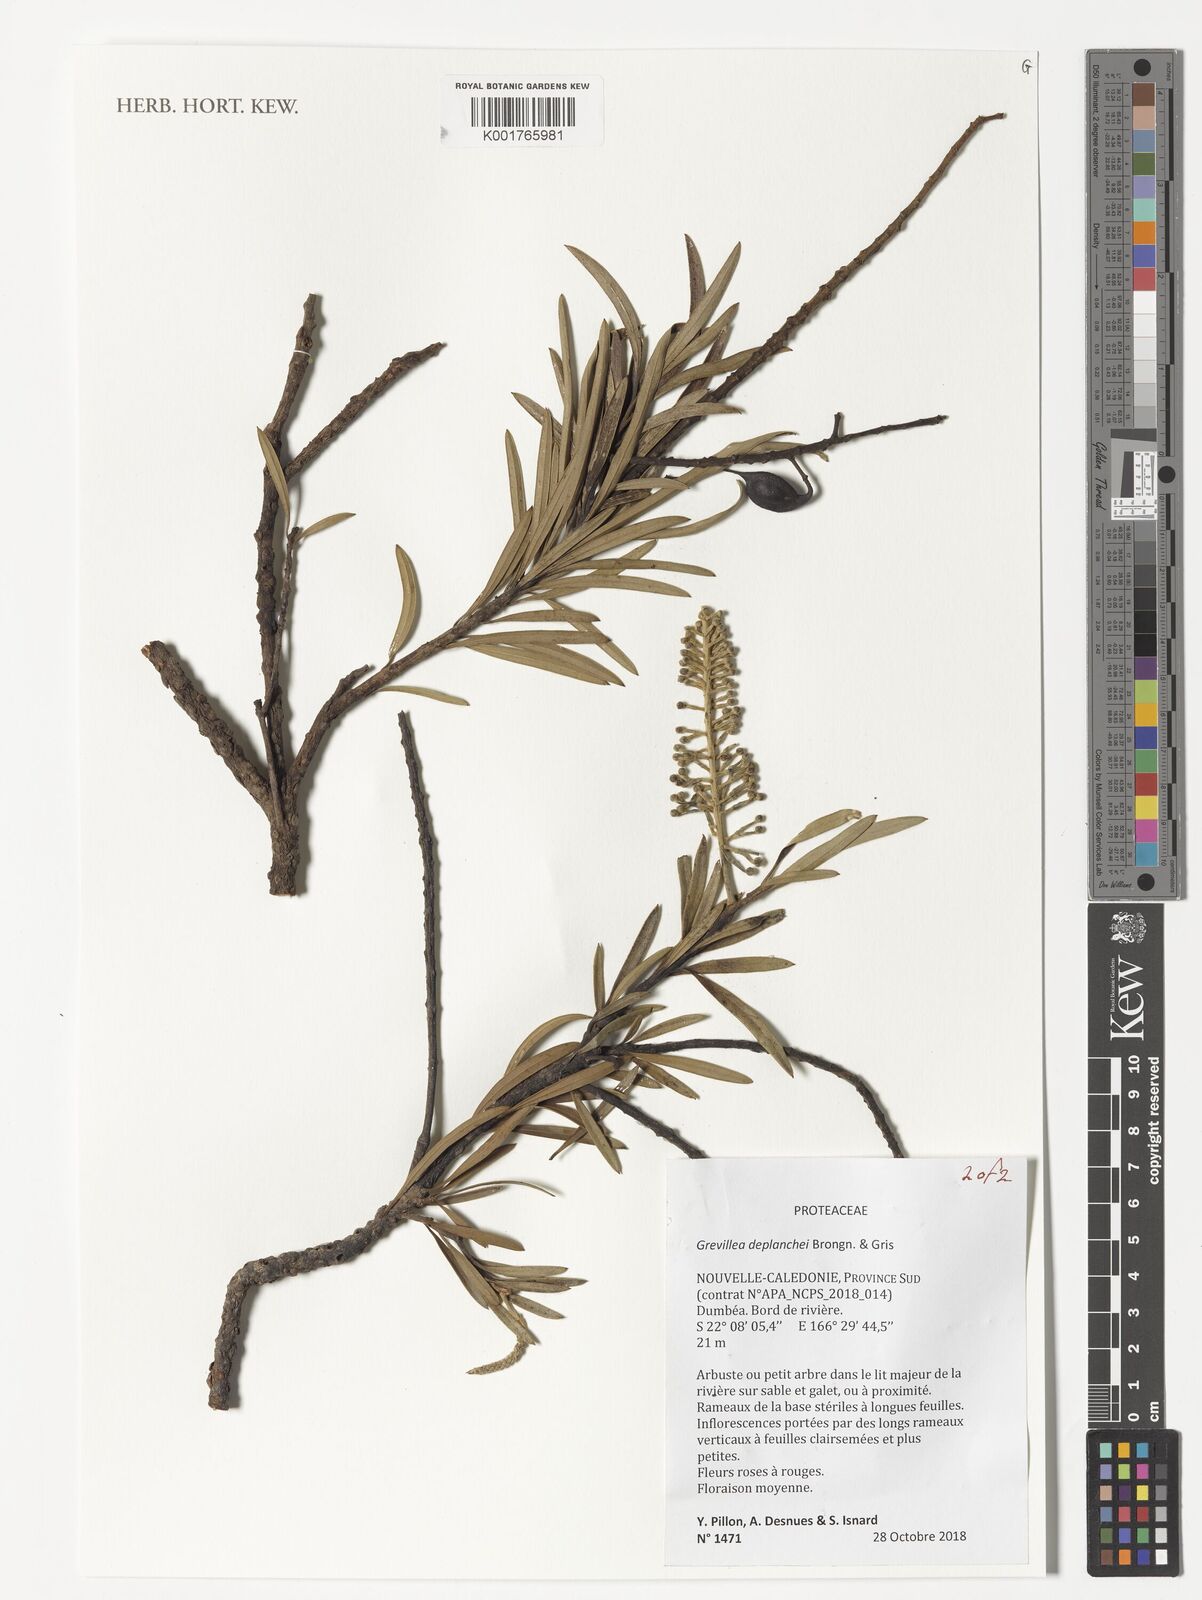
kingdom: Plantae
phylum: Tracheophyta
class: Magnoliopsida
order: Proteales
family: Proteaceae
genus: Grevillea
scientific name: Grevillea gillivrayi
